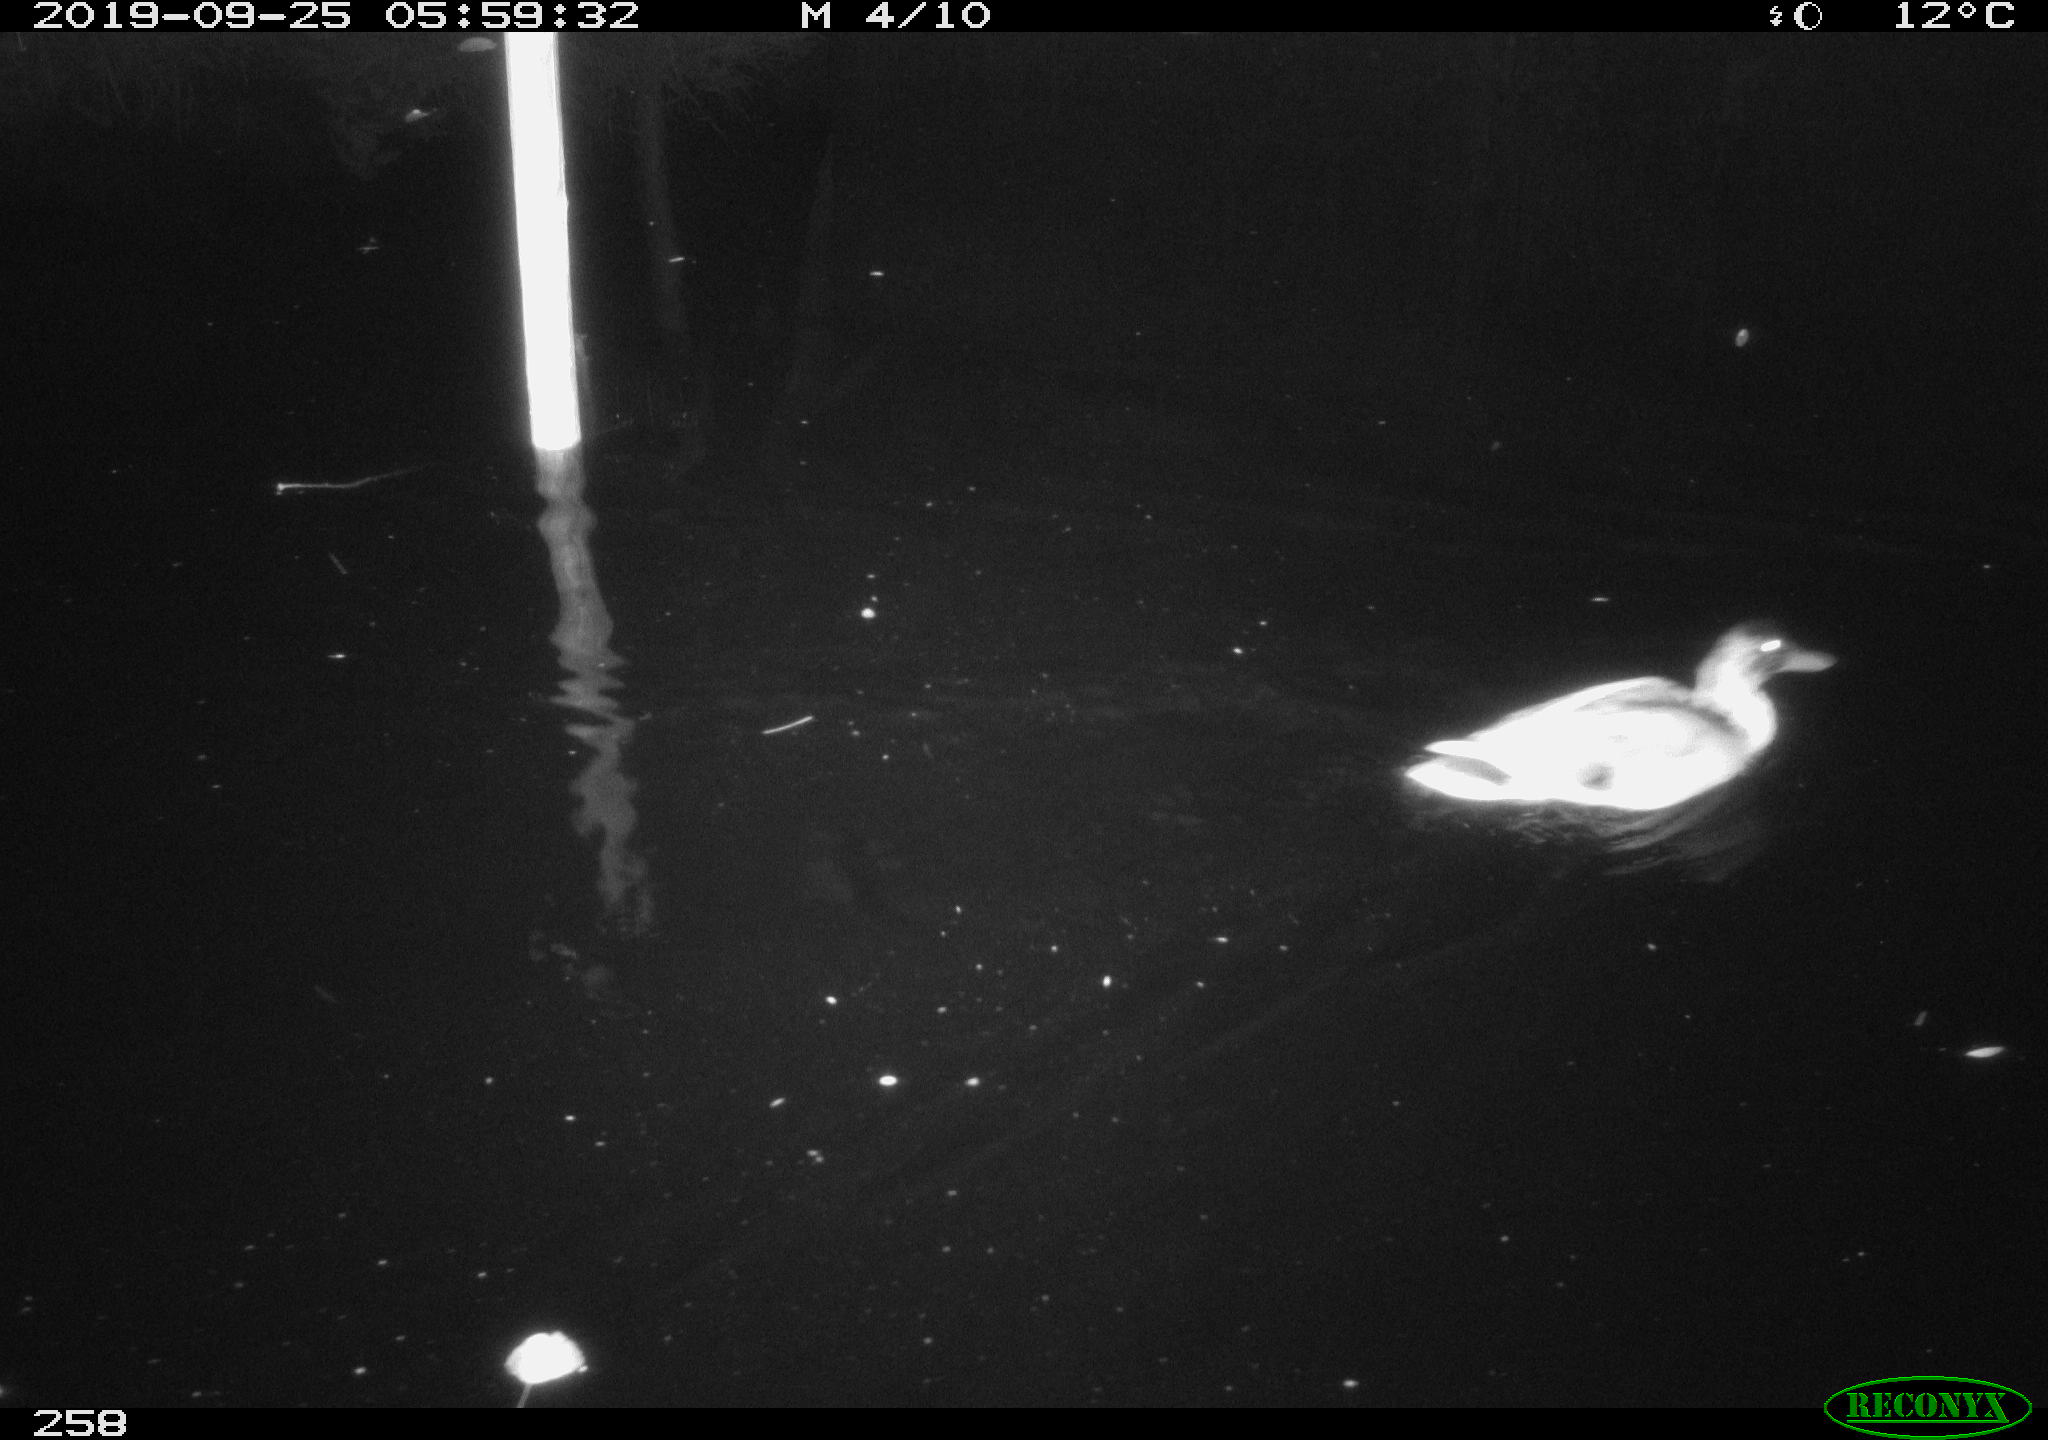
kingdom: Animalia
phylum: Chordata
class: Aves
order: Anseriformes
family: Anatidae
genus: Anas
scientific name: Anas platyrhynchos
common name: Mallard
